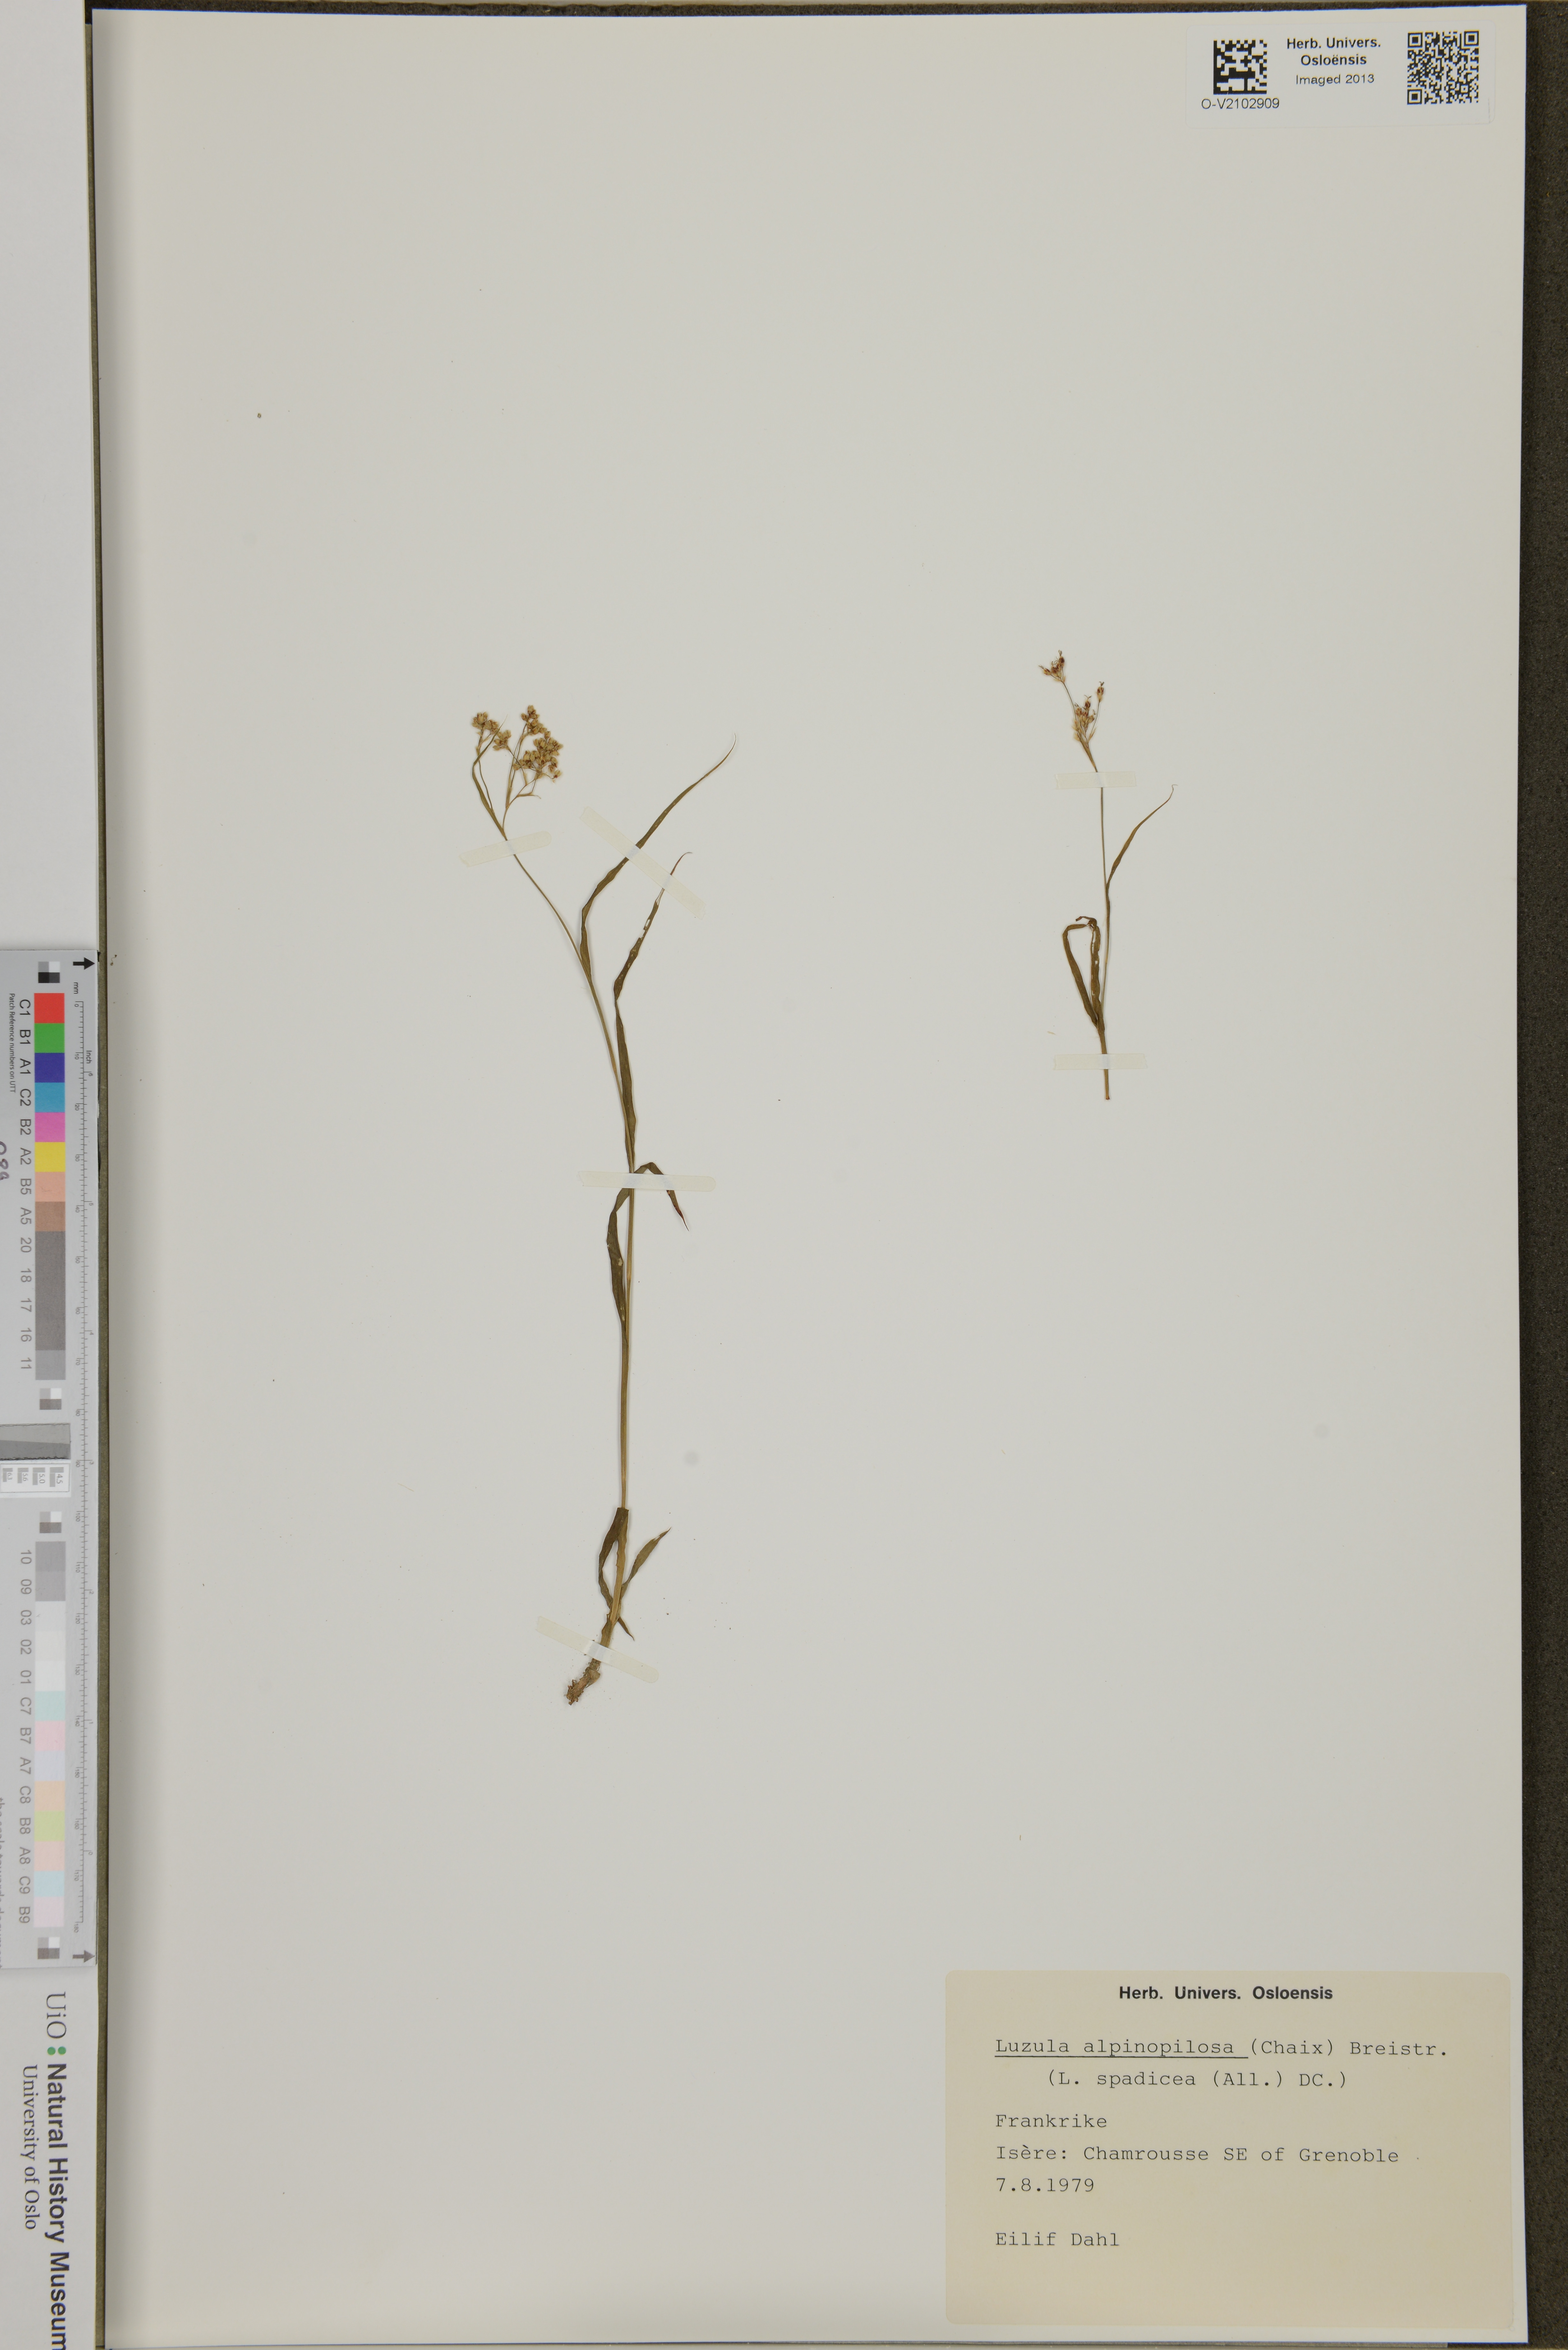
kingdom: Plantae
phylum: Tracheophyta
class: Liliopsida
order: Poales
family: Juncaceae
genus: Luzula
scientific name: Luzula alpinopilosa
